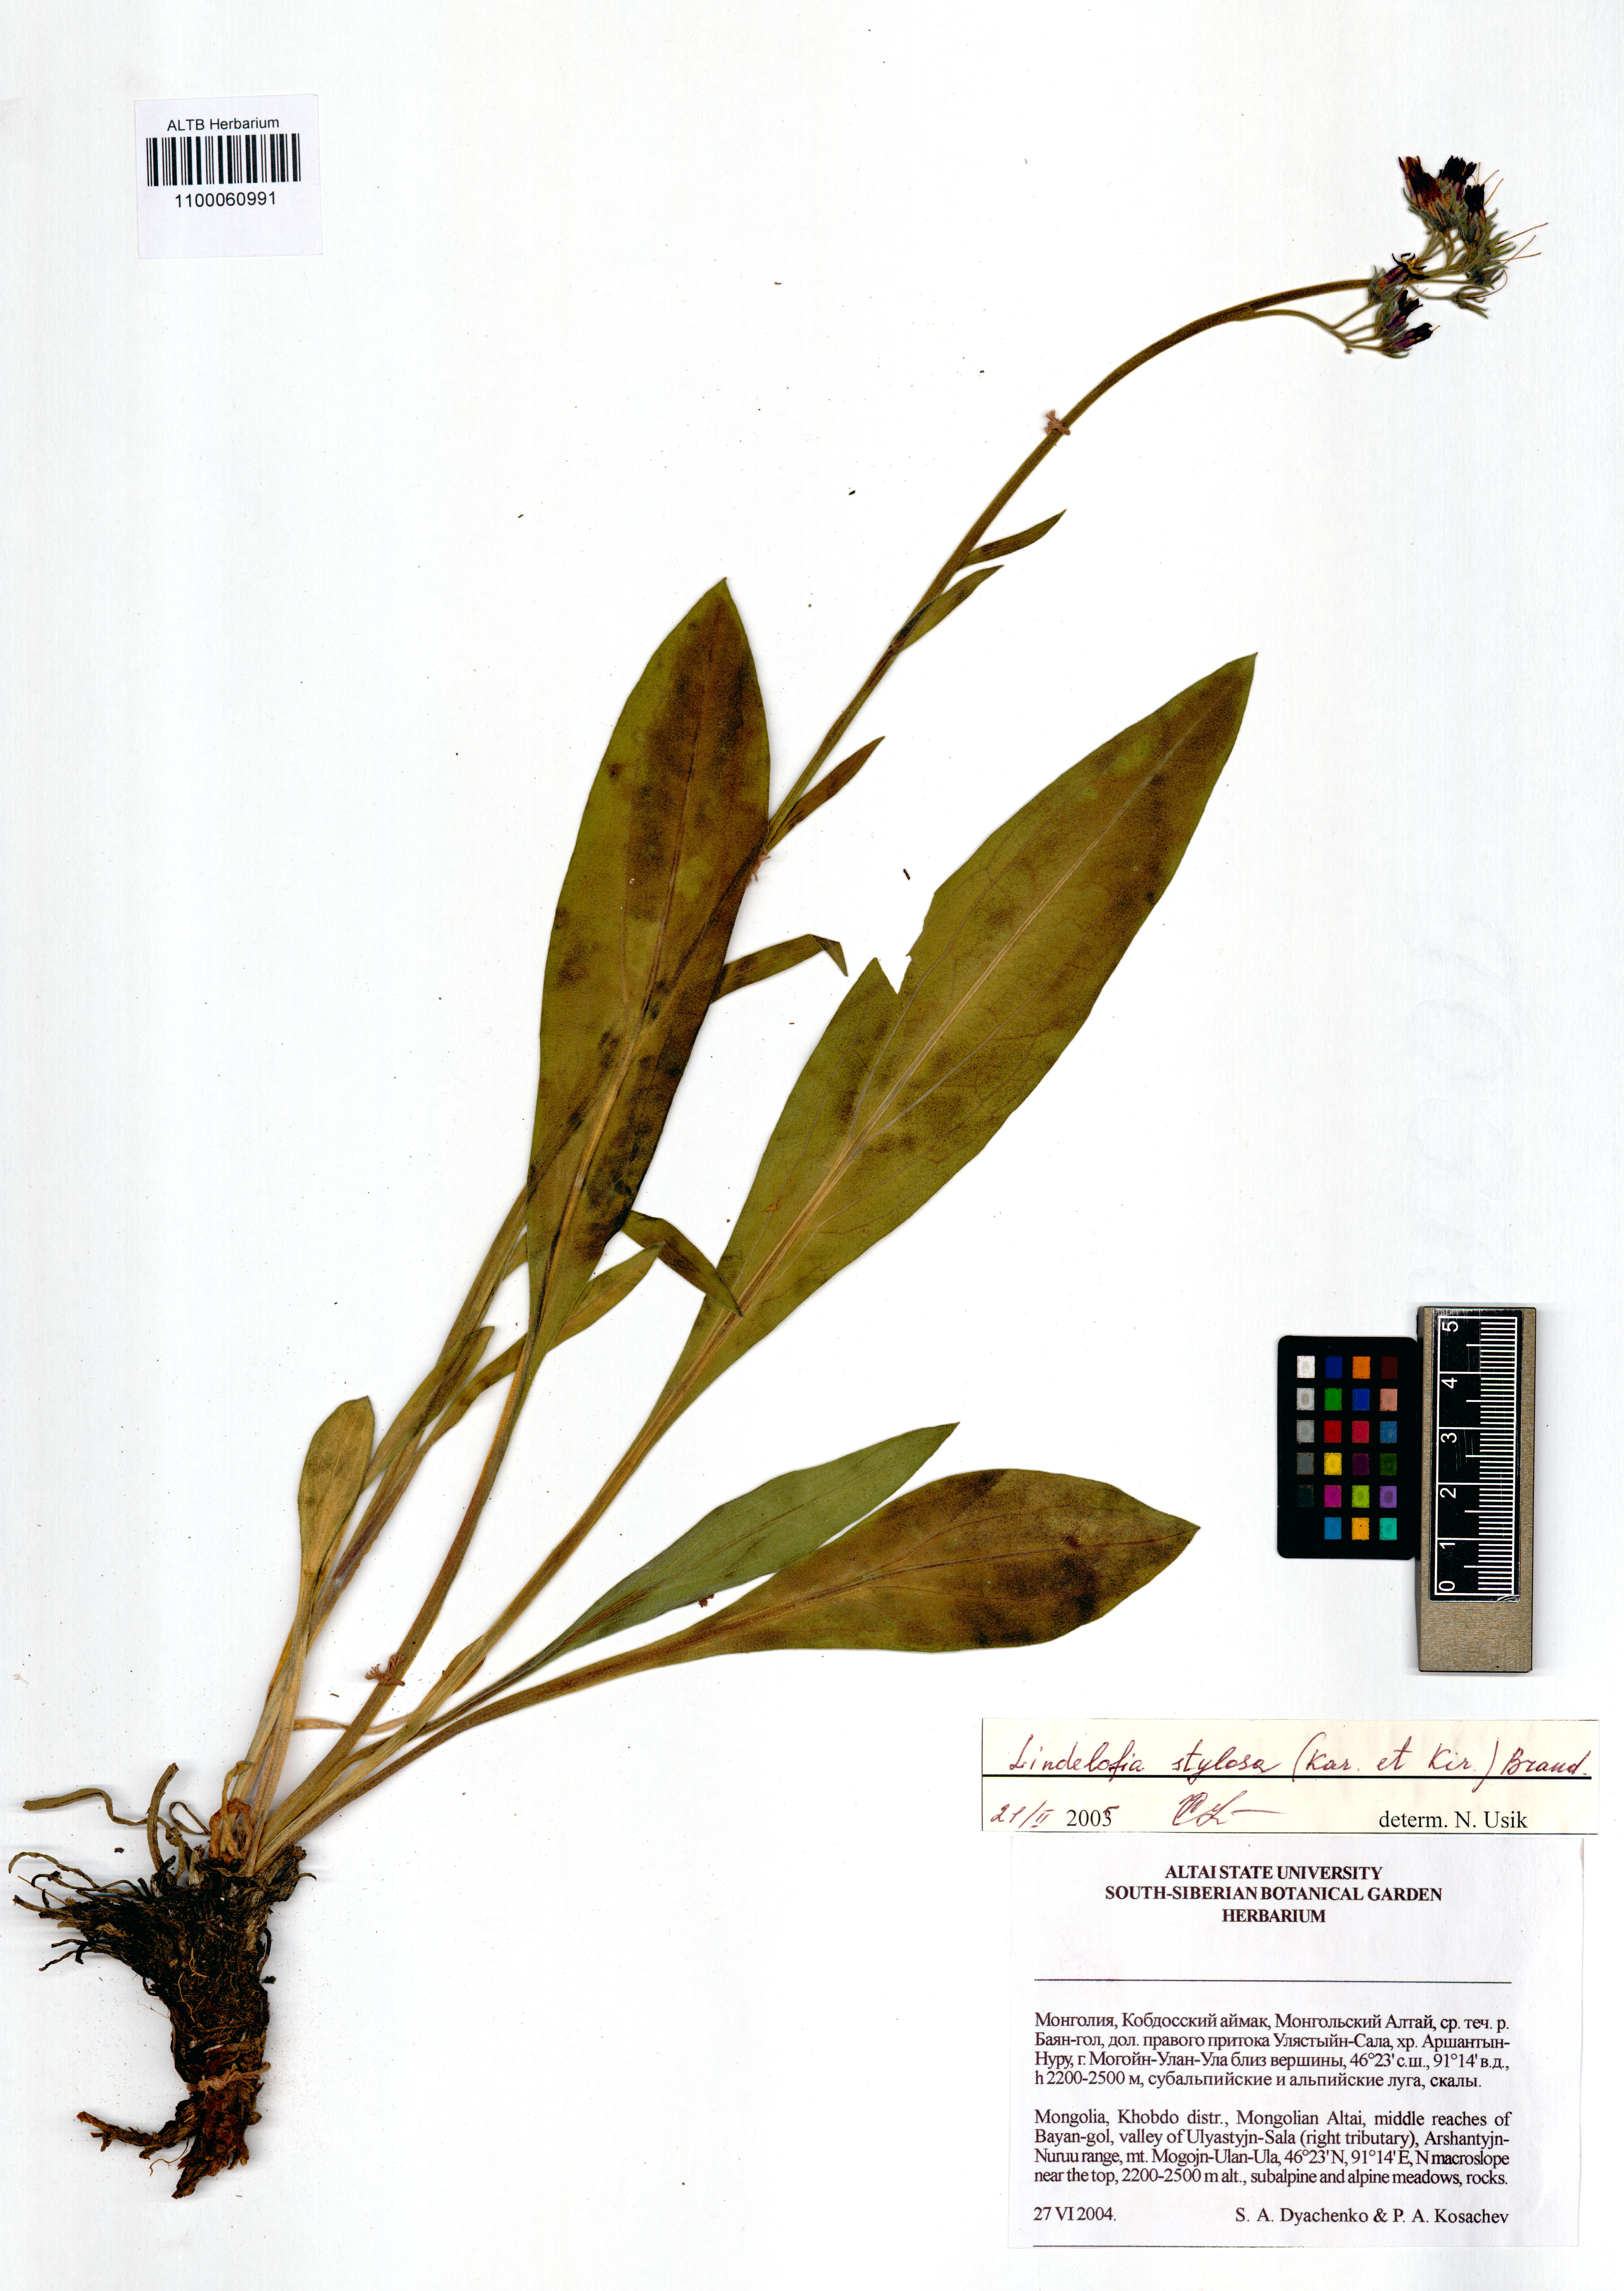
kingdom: Plantae
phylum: Tracheophyta
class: Magnoliopsida
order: Boraginales
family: Boraginaceae
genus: Lindelofia
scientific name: Lindelofia stylosa
